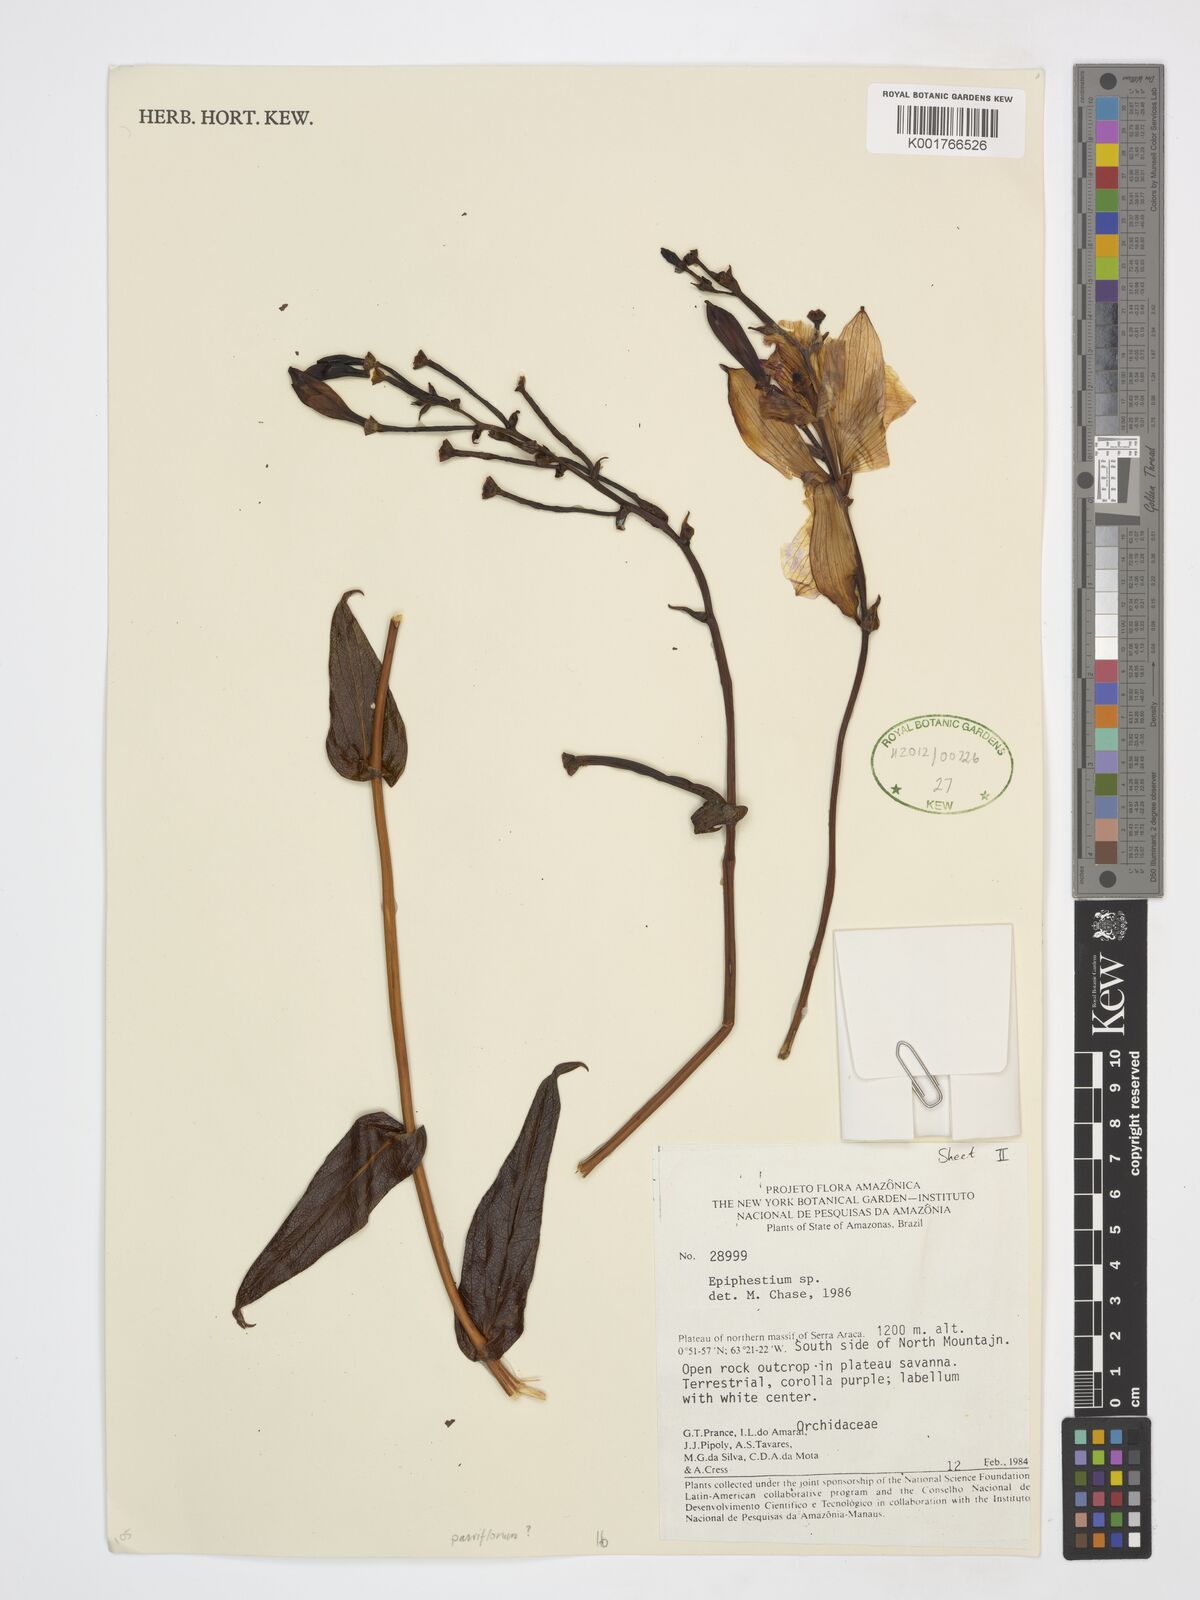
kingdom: Plantae
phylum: Tracheophyta
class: Liliopsida
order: Asparagales
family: Orchidaceae
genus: Epistephium
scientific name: Epistephium
